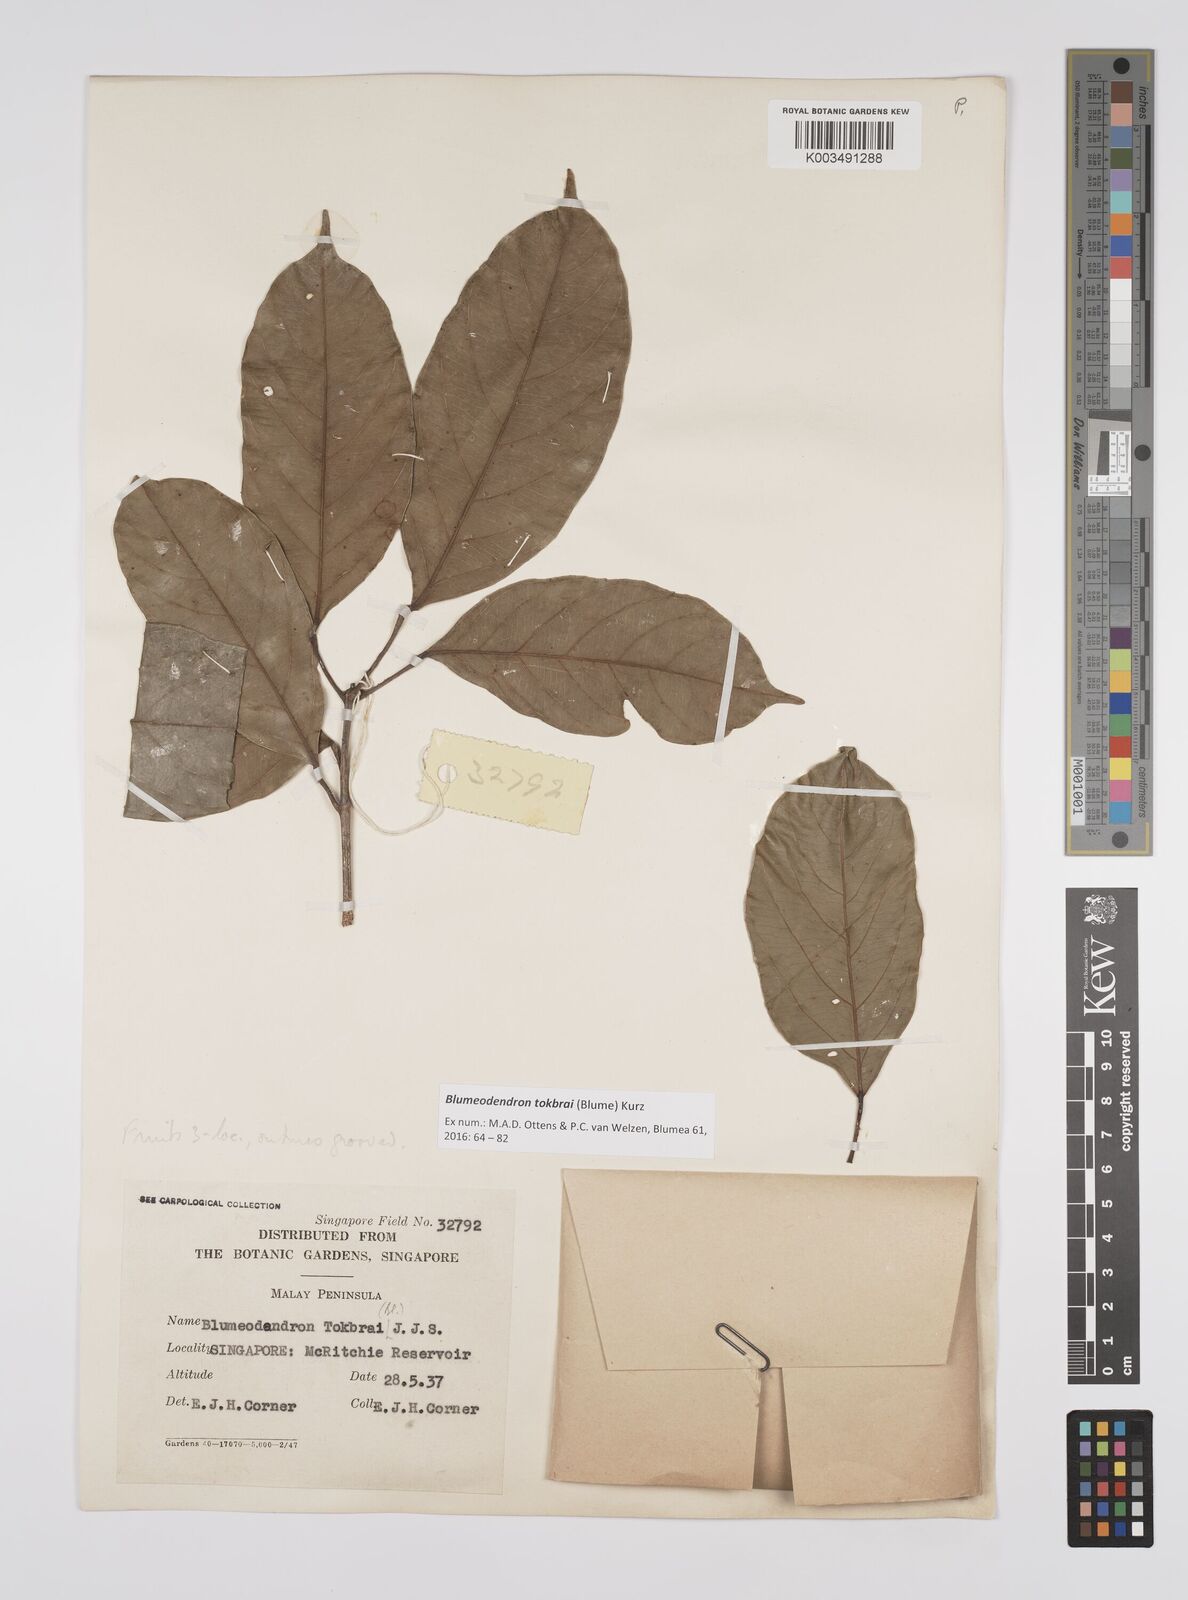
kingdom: Plantae
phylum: Tracheophyta
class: Magnoliopsida
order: Malpighiales
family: Euphorbiaceae
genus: Blumeodendron
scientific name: Blumeodendron tokbrai
